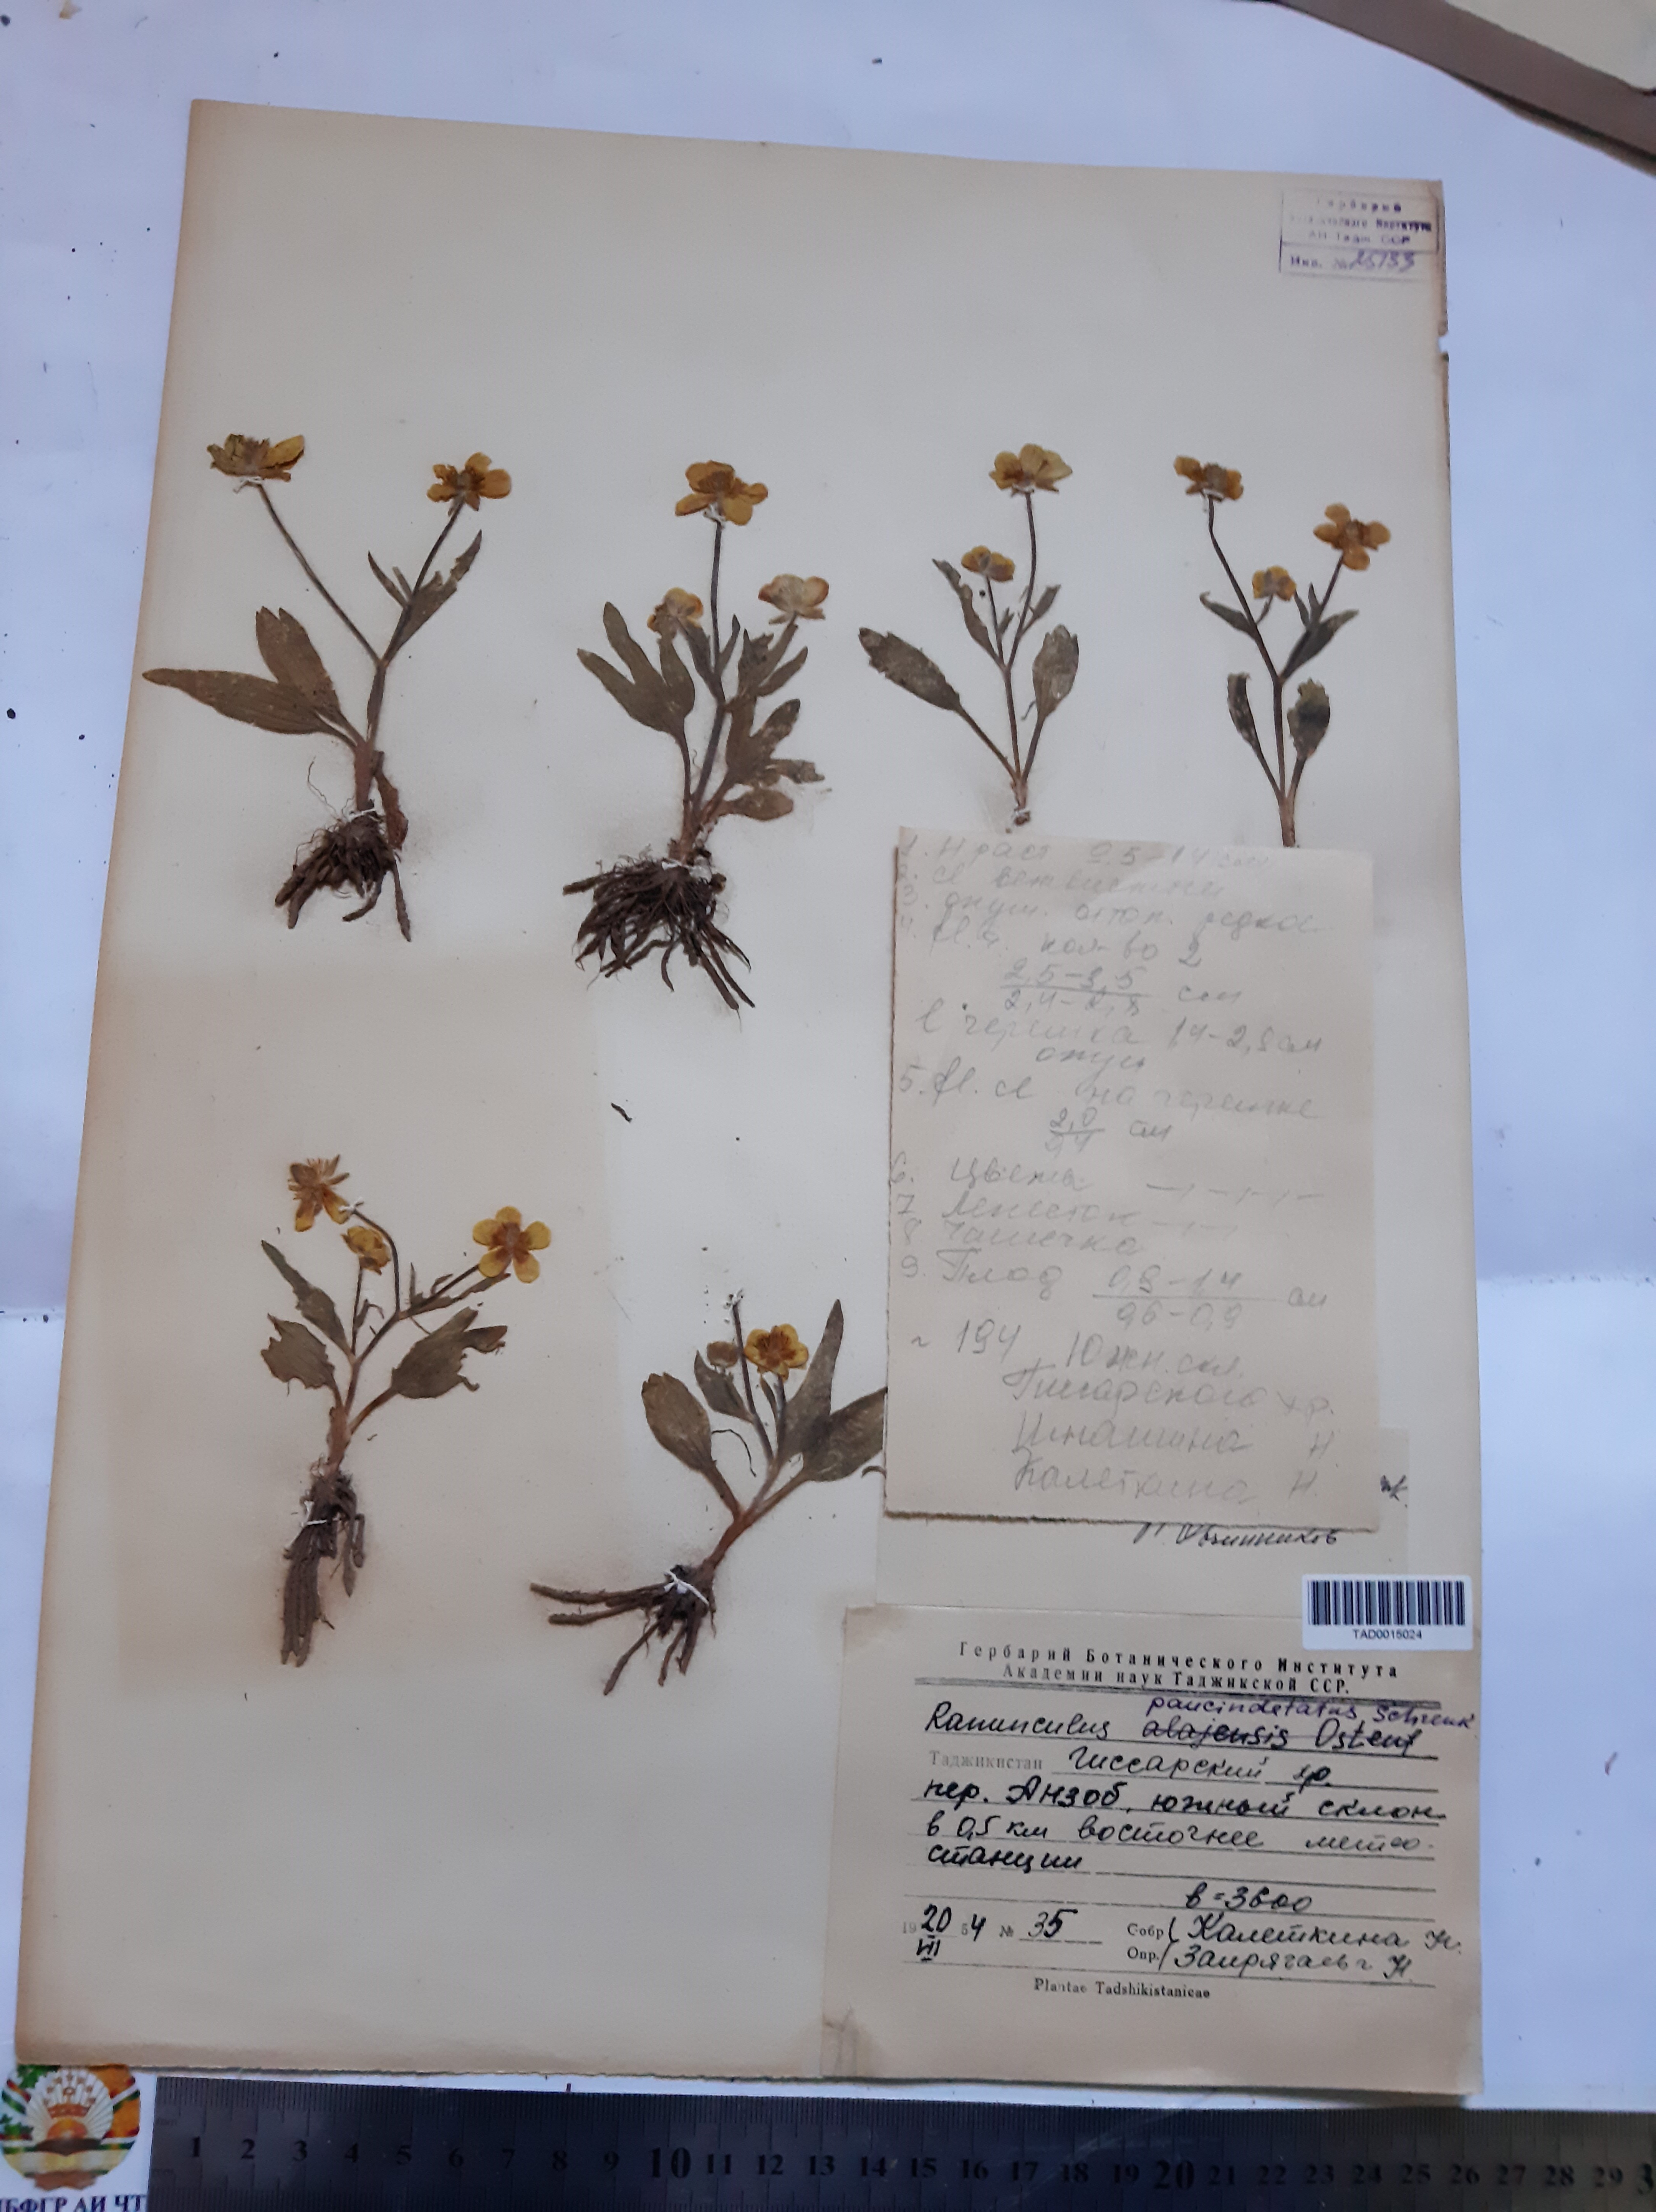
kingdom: Plantae
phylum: Tracheophyta
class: Magnoliopsida
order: Ranunculales
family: Ranunculaceae
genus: Ranunculus
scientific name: Ranunculus paucidentatus
